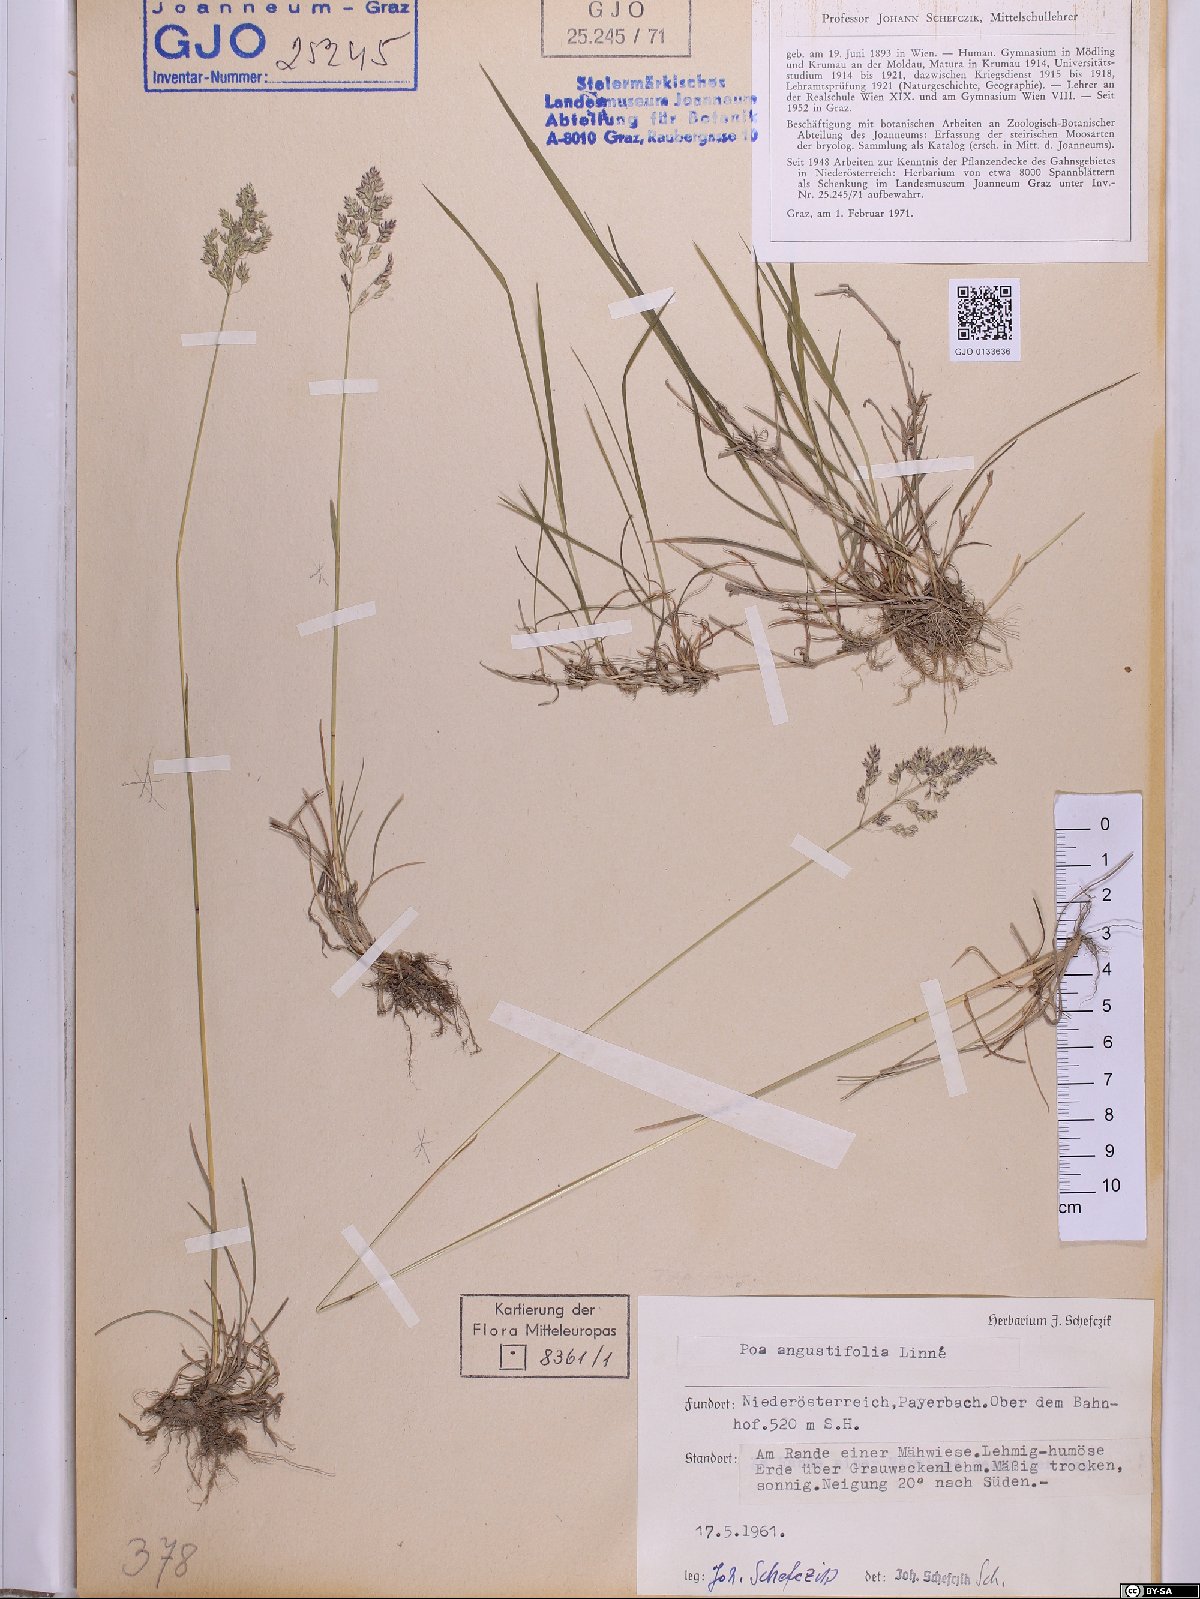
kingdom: Plantae
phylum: Tracheophyta
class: Liliopsida
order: Poales
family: Poaceae
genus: Poa
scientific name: Poa angustifolia
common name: Narrow-leaved meadow-grass
